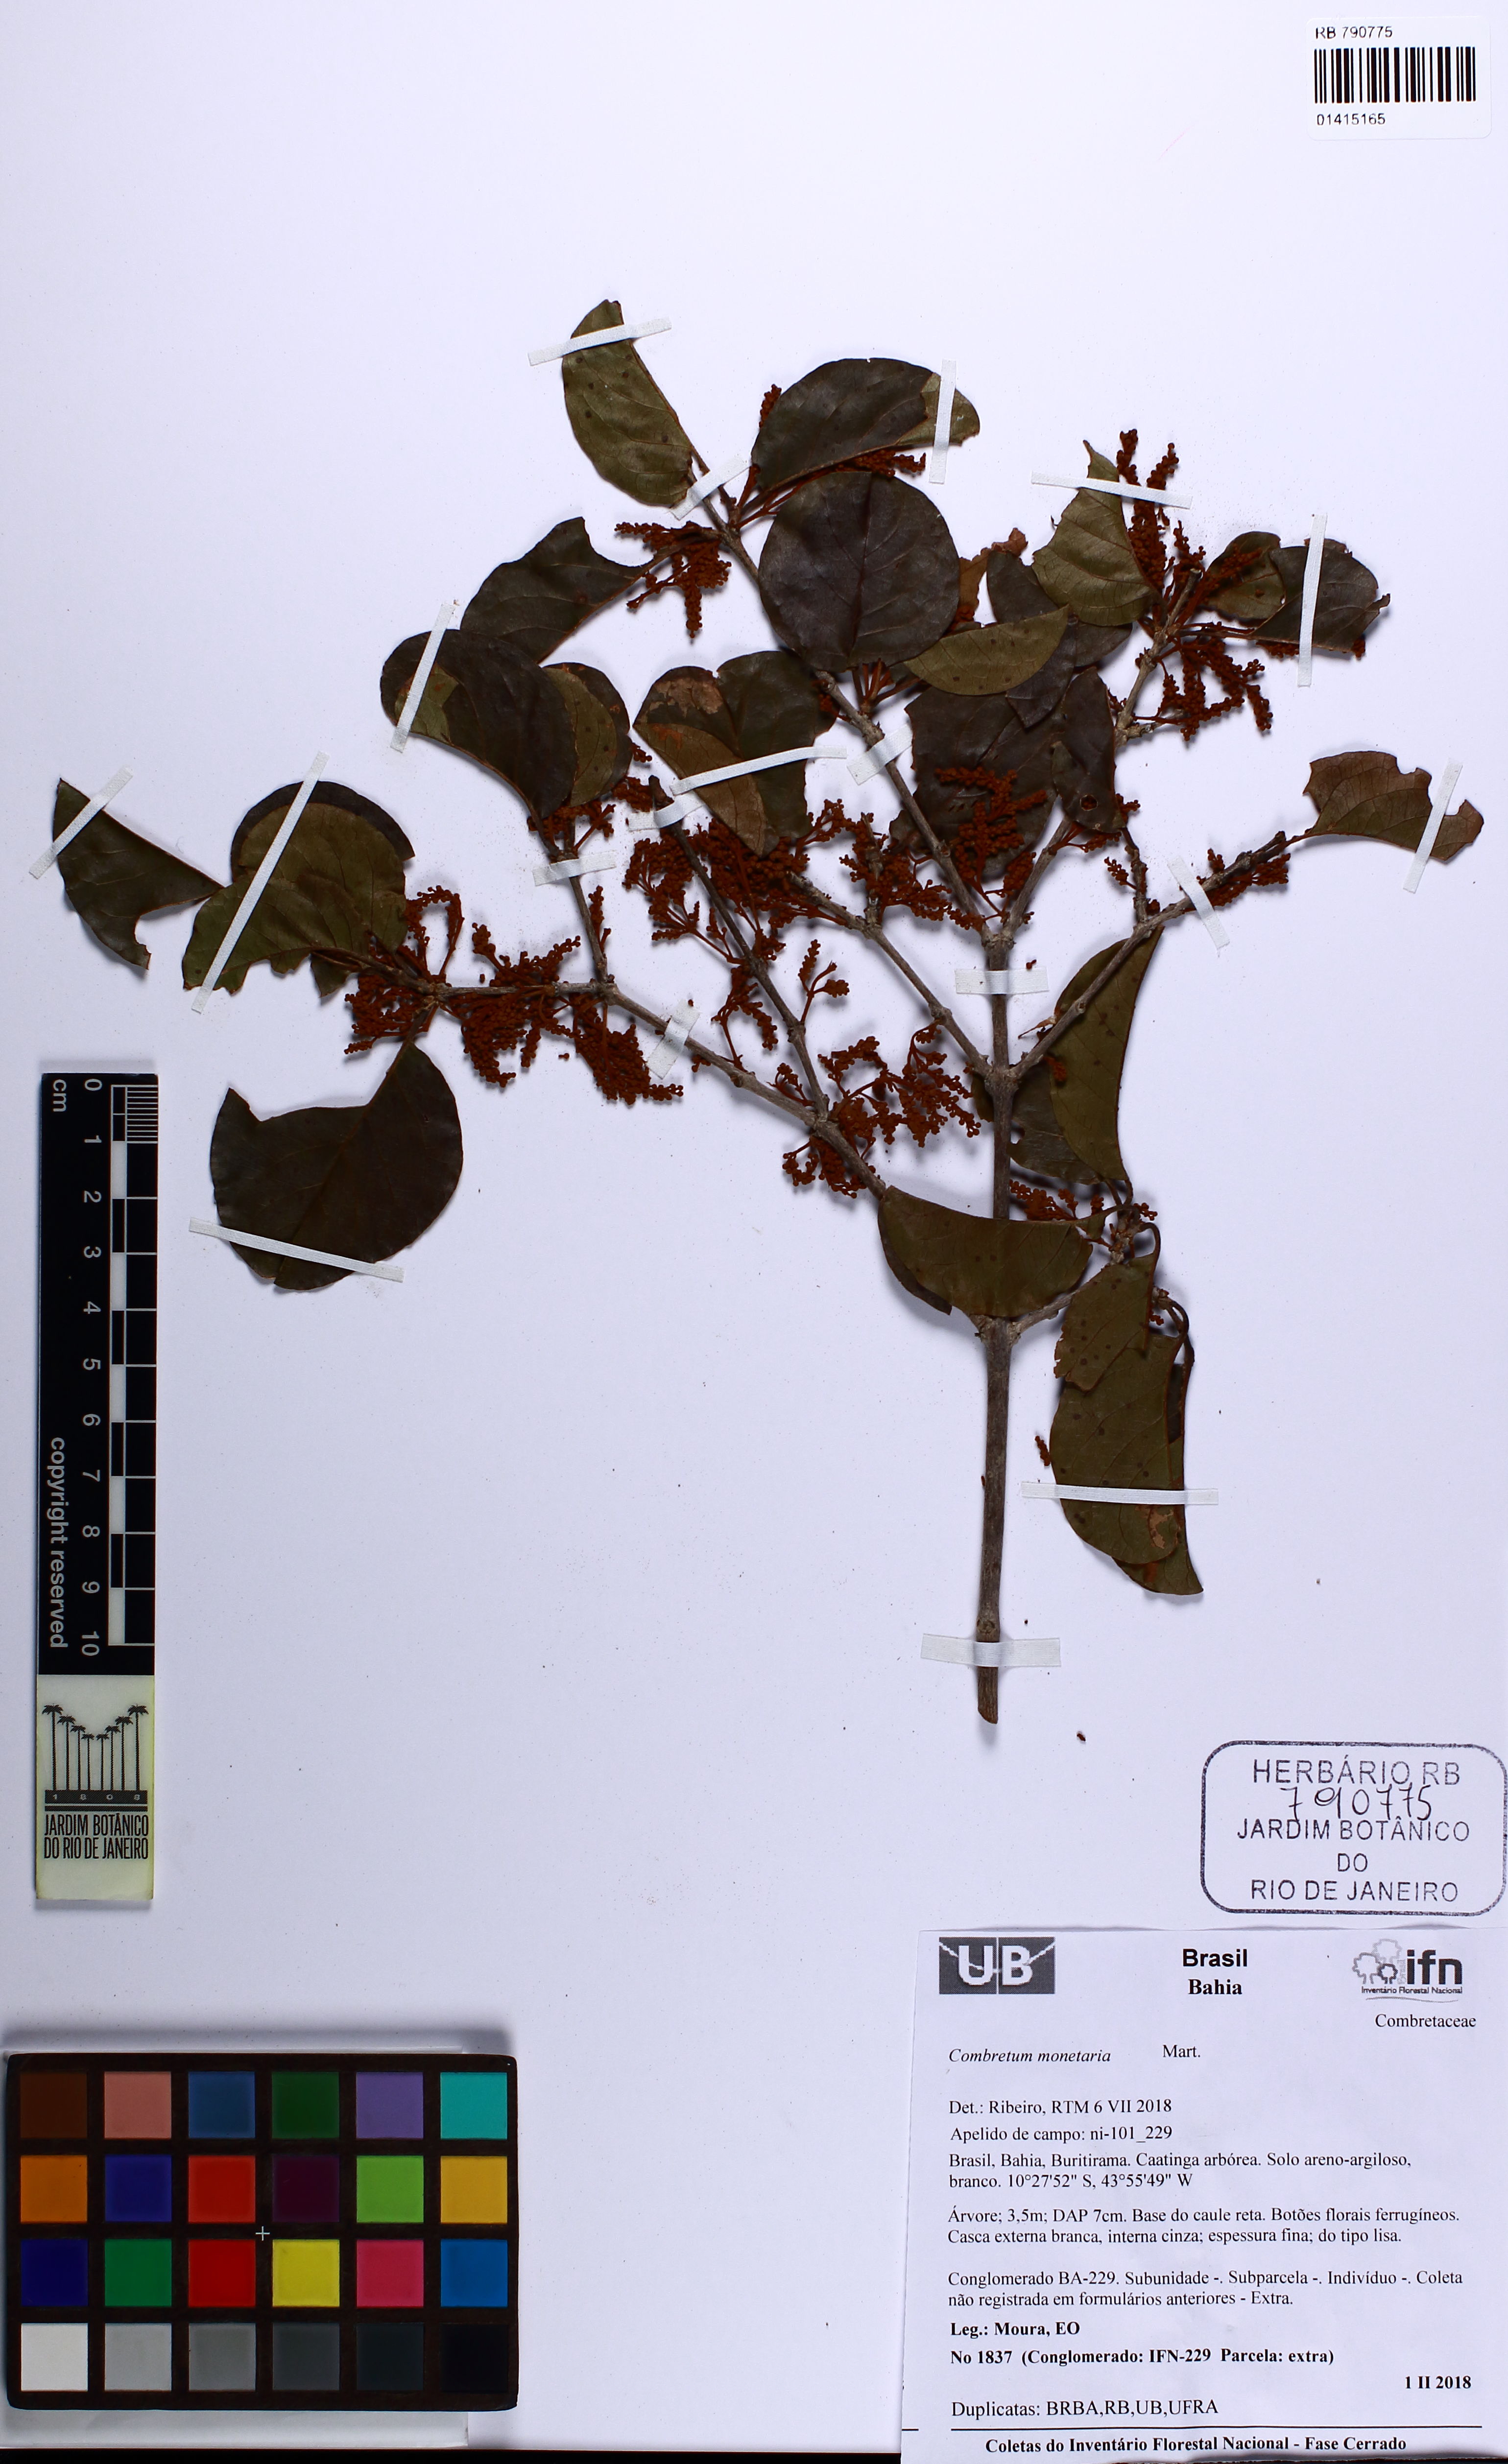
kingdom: Plantae
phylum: Tracheophyta
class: Magnoliopsida
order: Myrtales
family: Combretaceae
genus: Combretum
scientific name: Combretum monetaria
